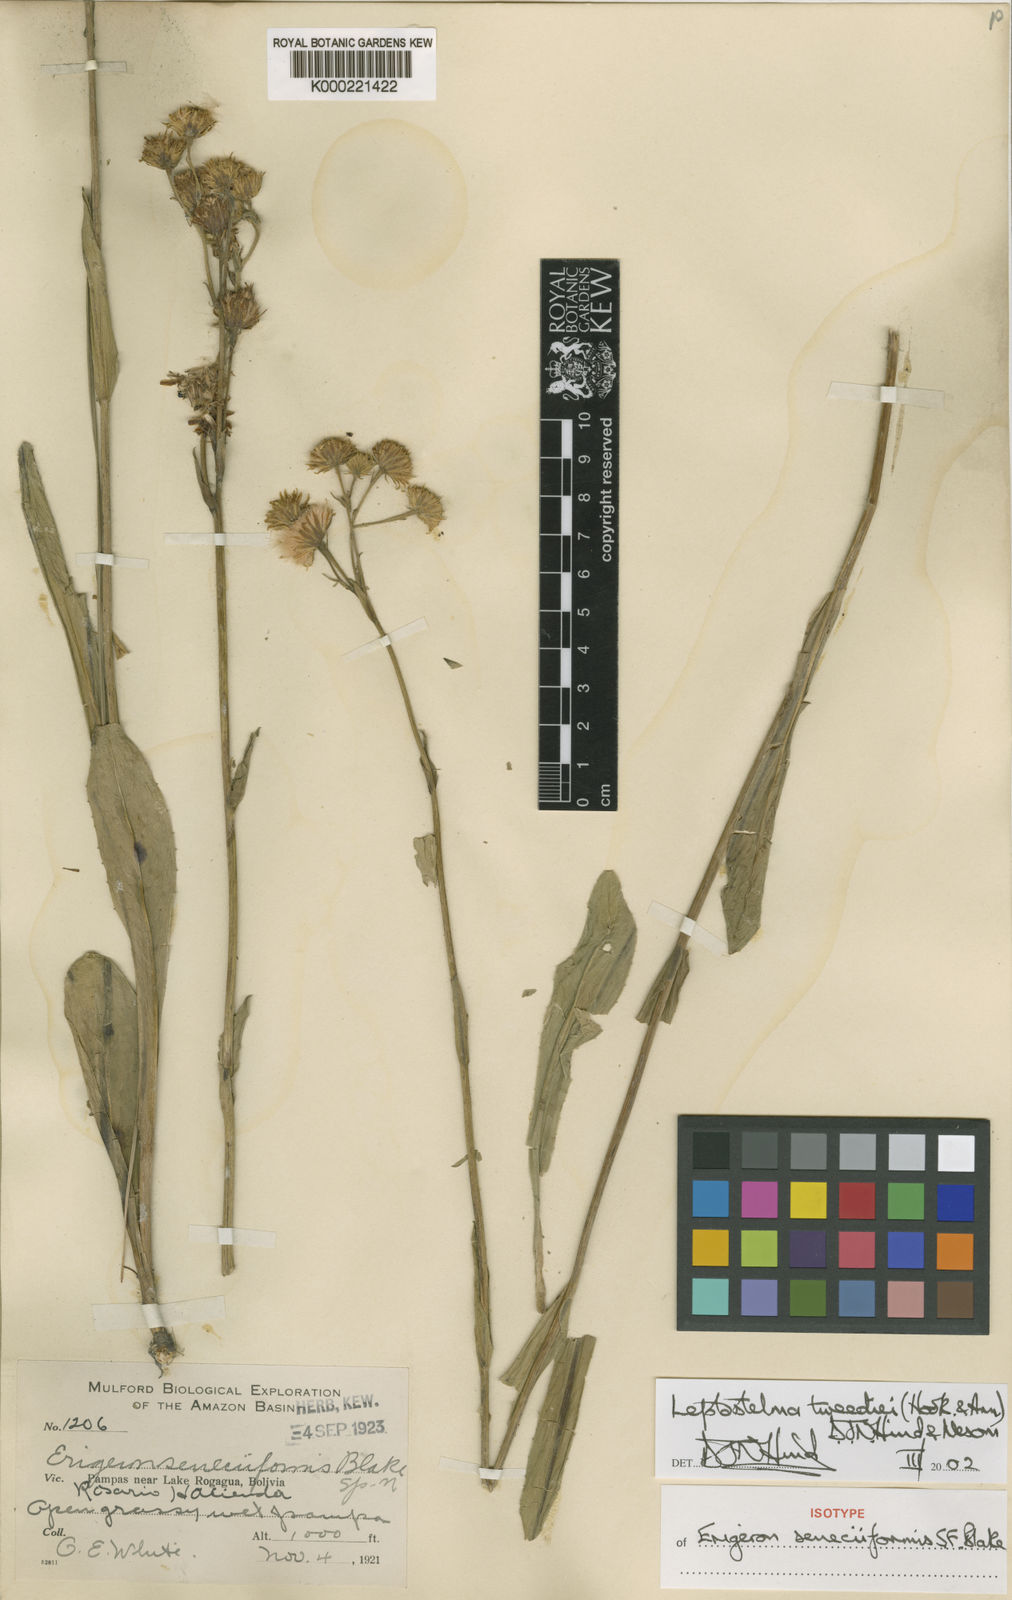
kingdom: Plantae
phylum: Tracheophyta
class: Magnoliopsida
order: Asterales
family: Asteraceae
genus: Leptostelma
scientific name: Leptostelma tweediei
